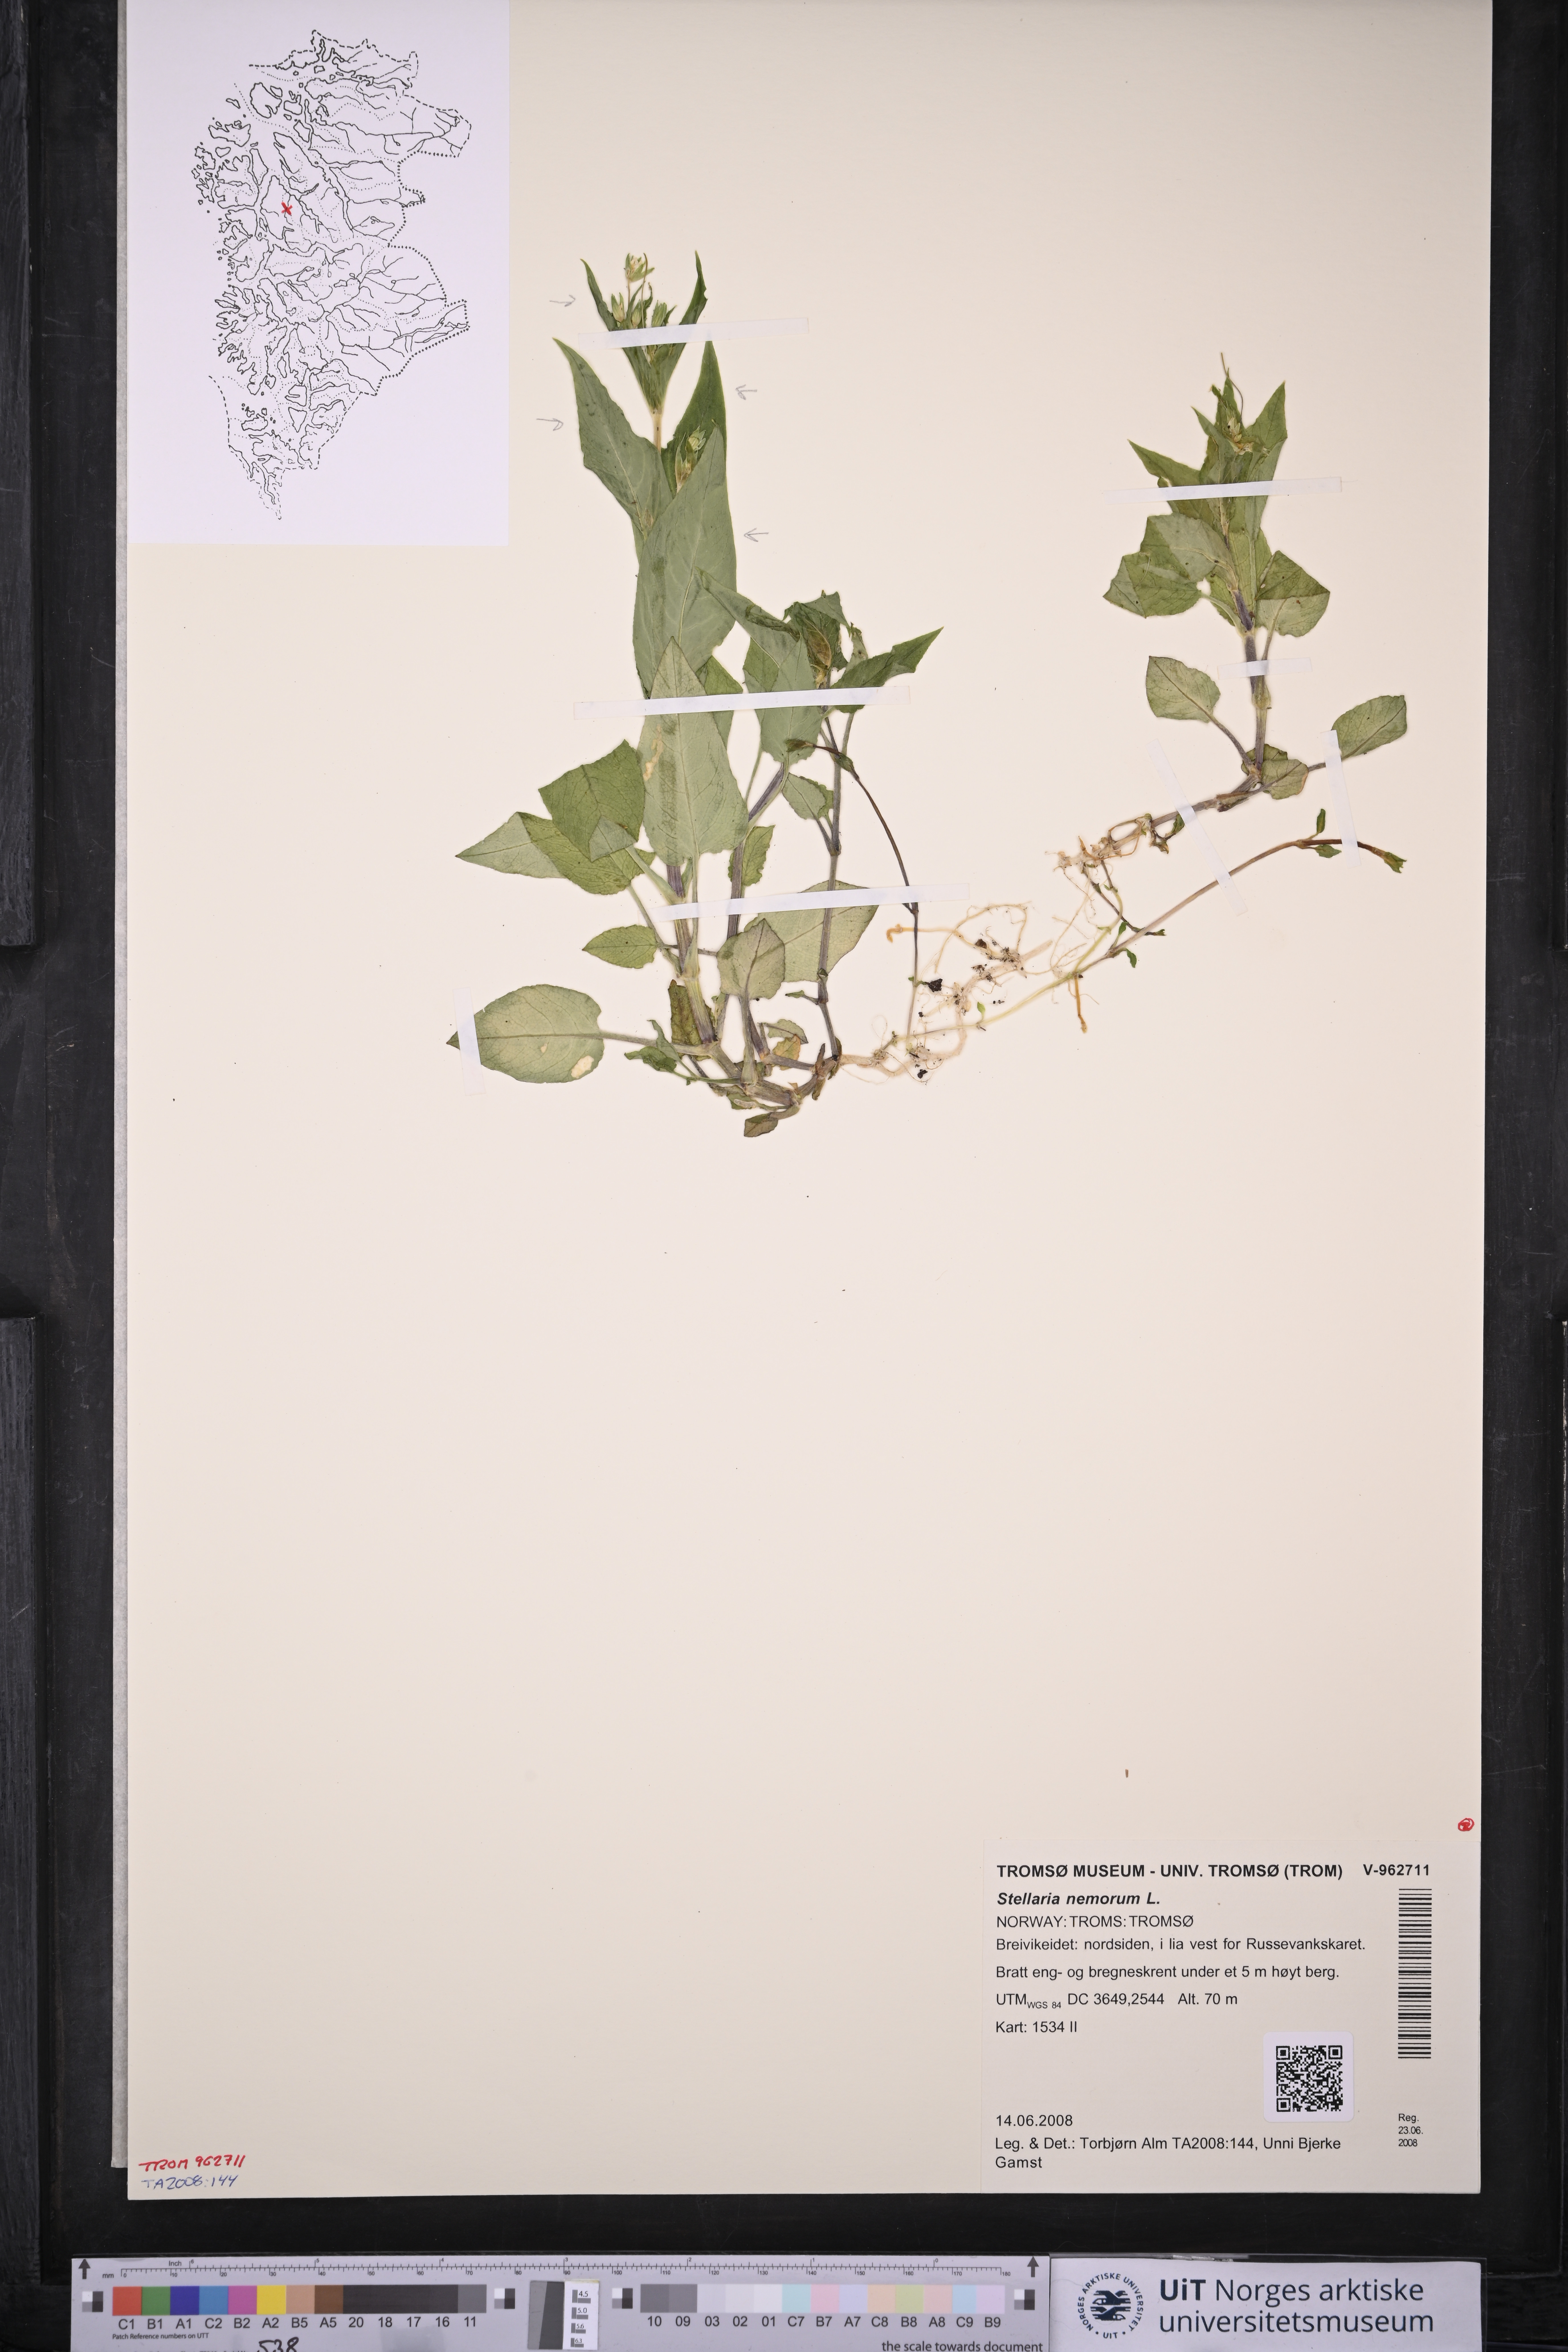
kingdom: Plantae
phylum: Tracheophyta
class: Magnoliopsida
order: Caryophyllales
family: Caryophyllaceae
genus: Stellaria
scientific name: Stellaria nemorum
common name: Wood stitchwort
